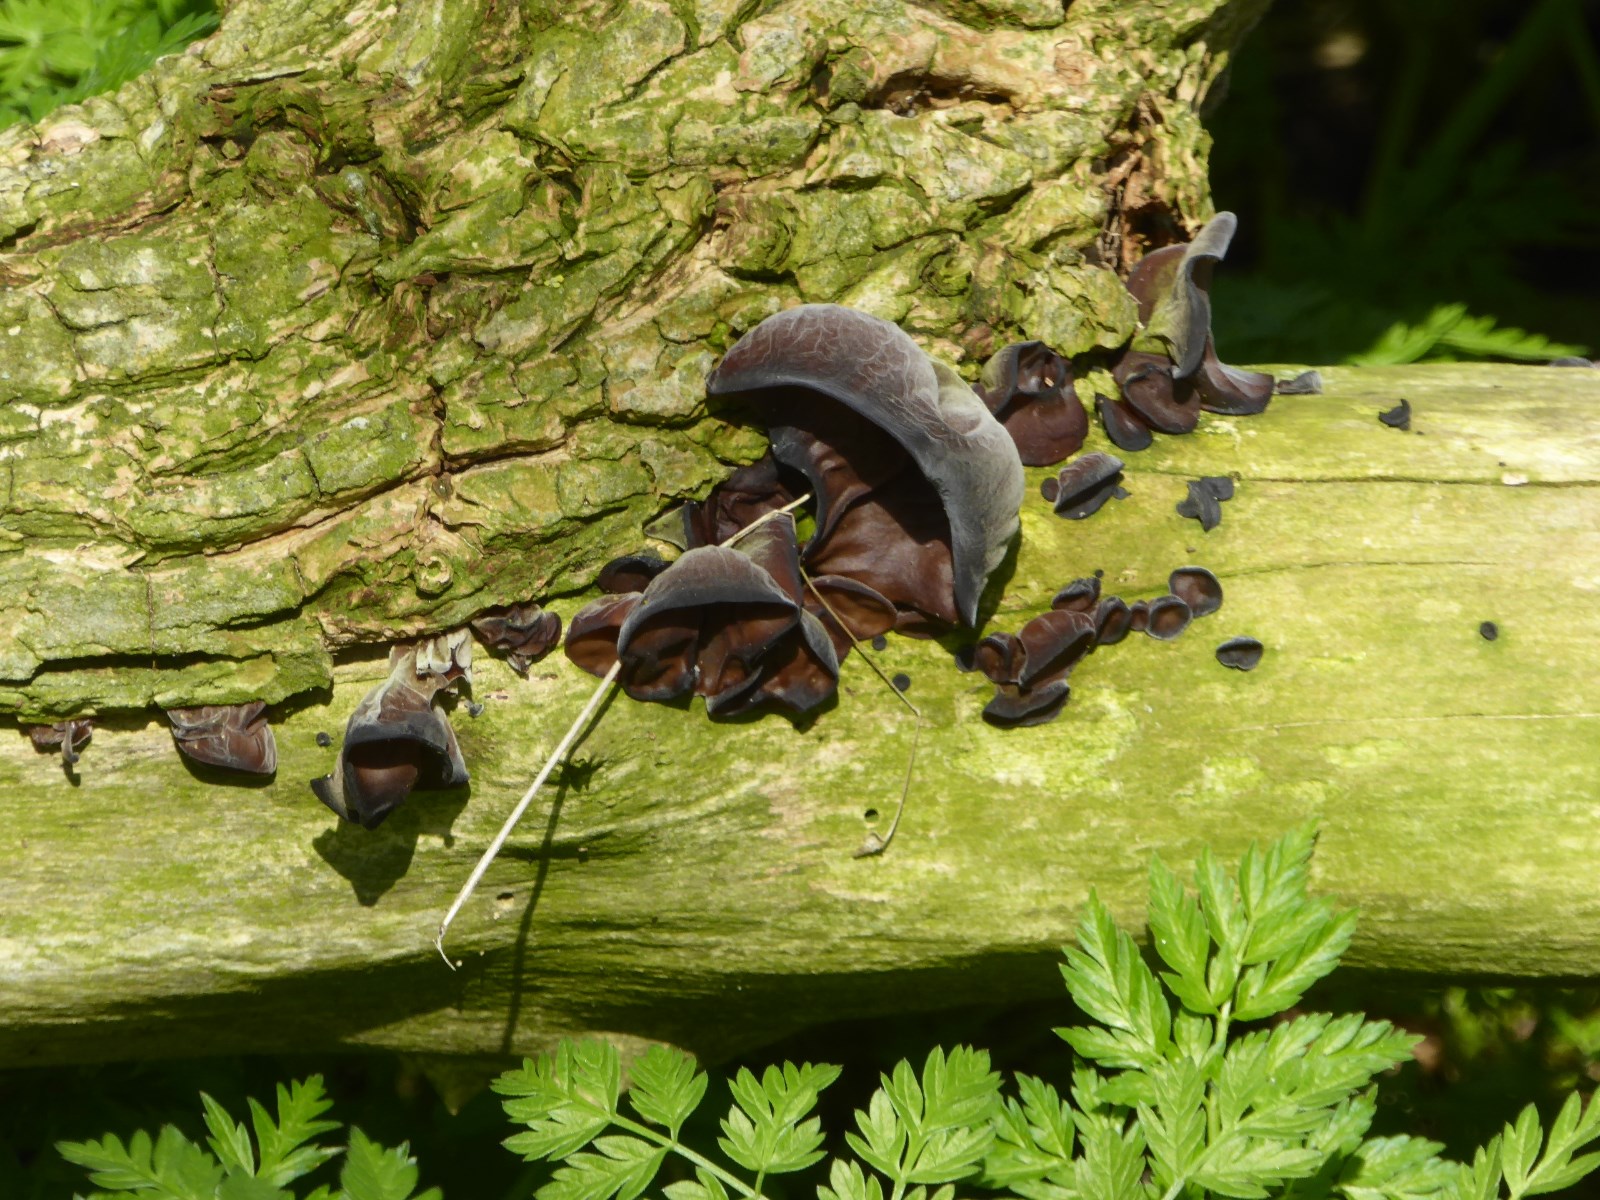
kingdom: Fungi
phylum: Basidiomycota
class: Agaricomycetes
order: Auriculariales
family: Auriculariaceae
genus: Auricularia
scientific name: Auricularia auricula-judae
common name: almindelig judasøre
